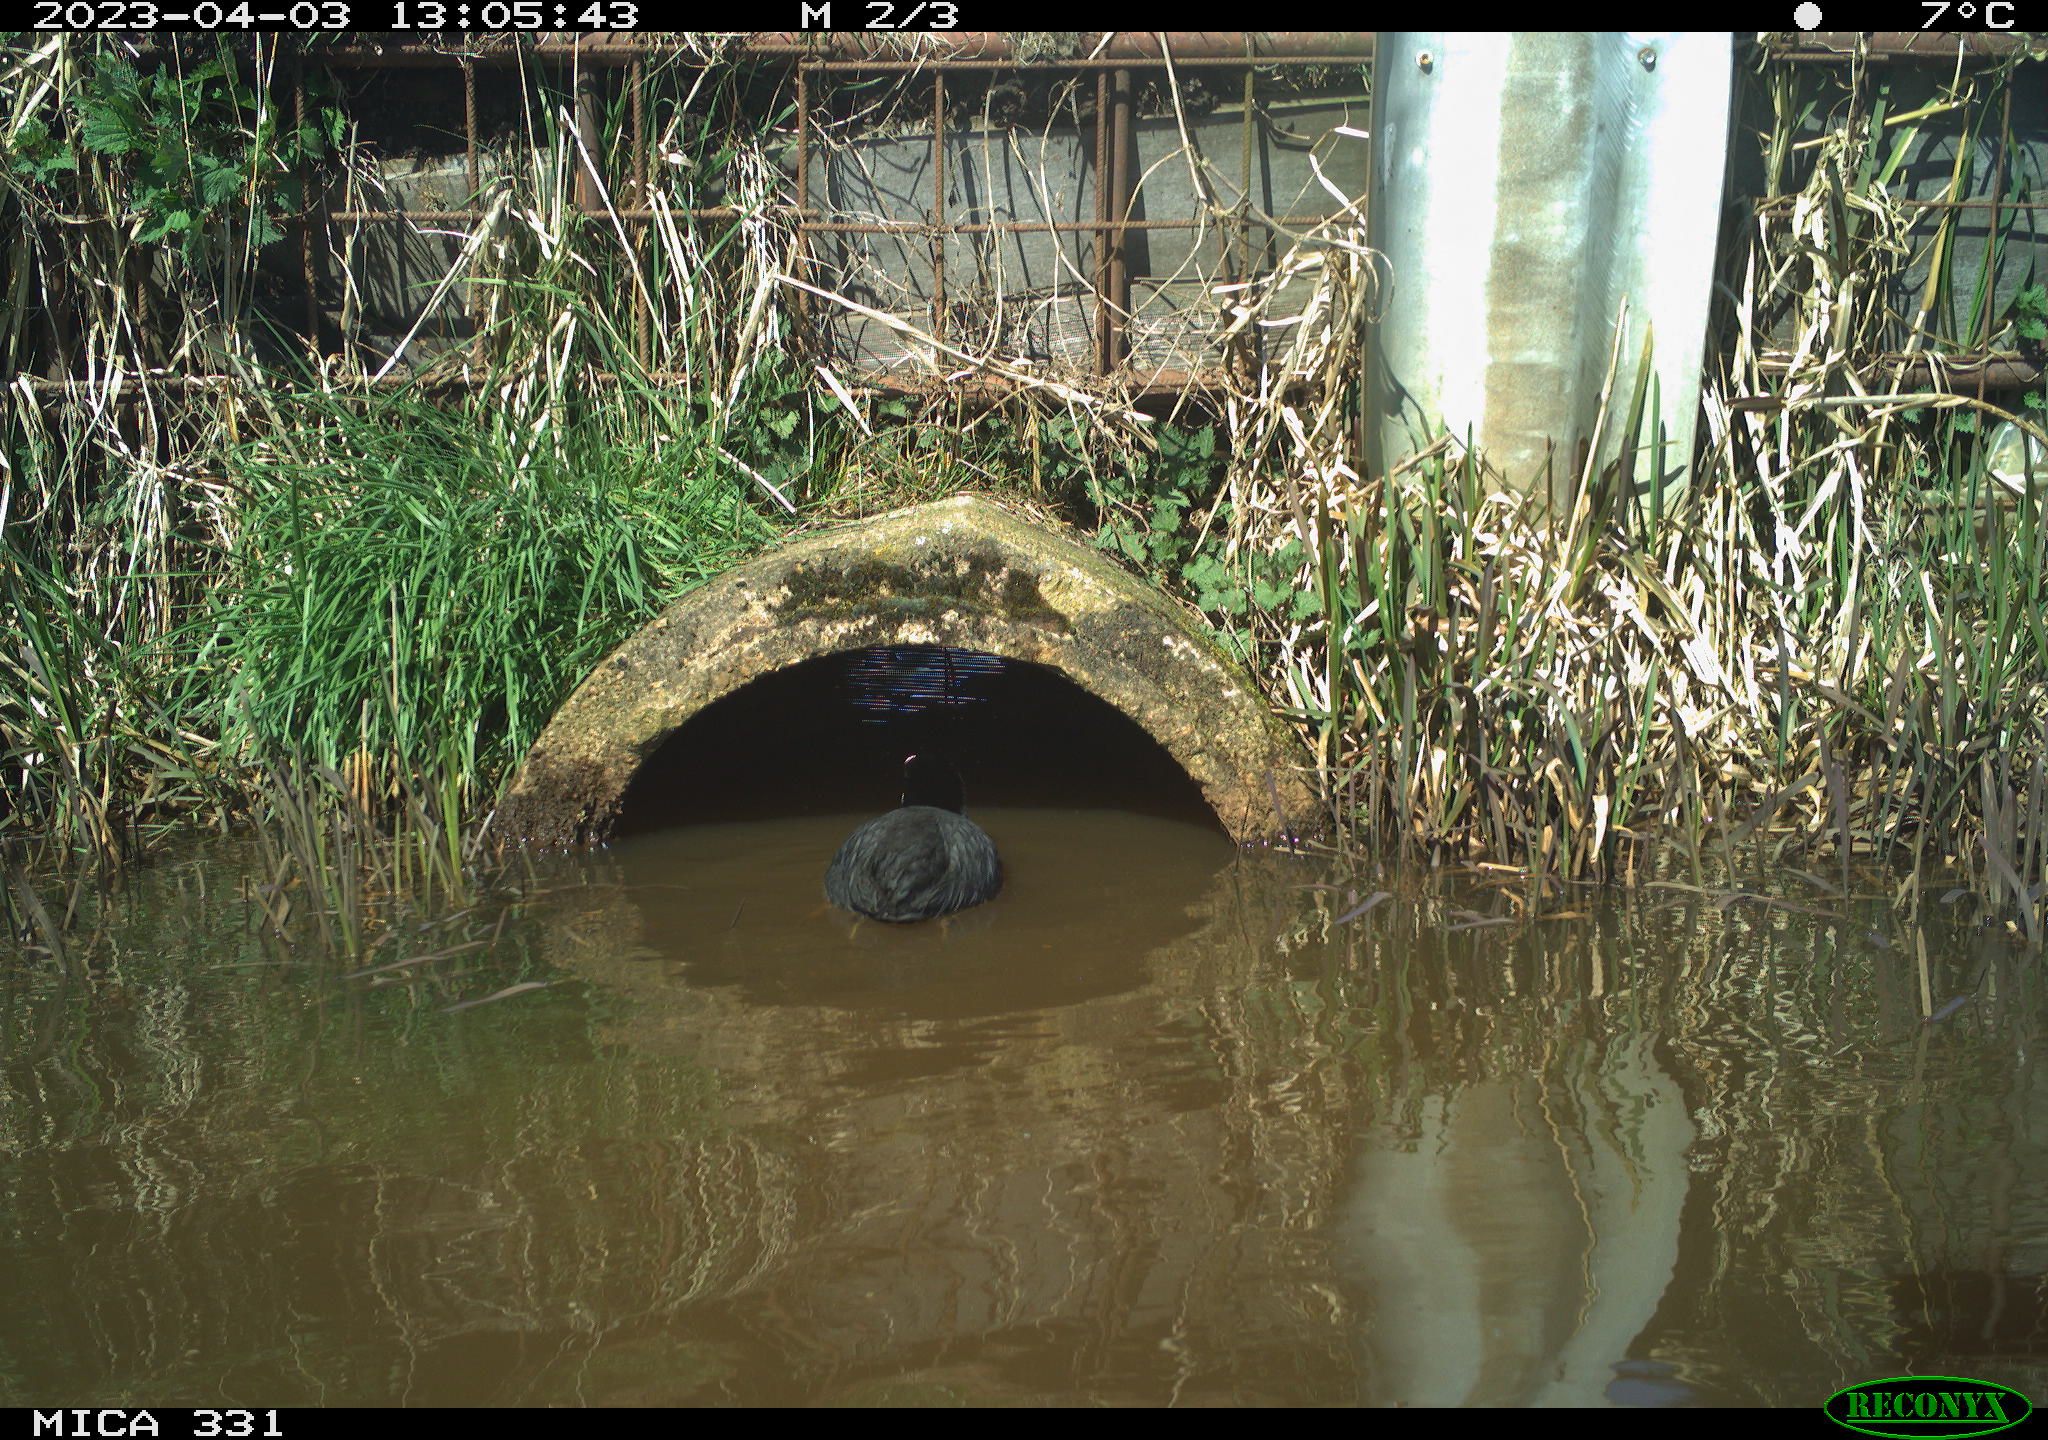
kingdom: Animalia
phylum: Chordata
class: Aves
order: Gruiformes
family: Rallidae
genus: Gallinula
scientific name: Gallinula chloropus
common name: Common moorhen
